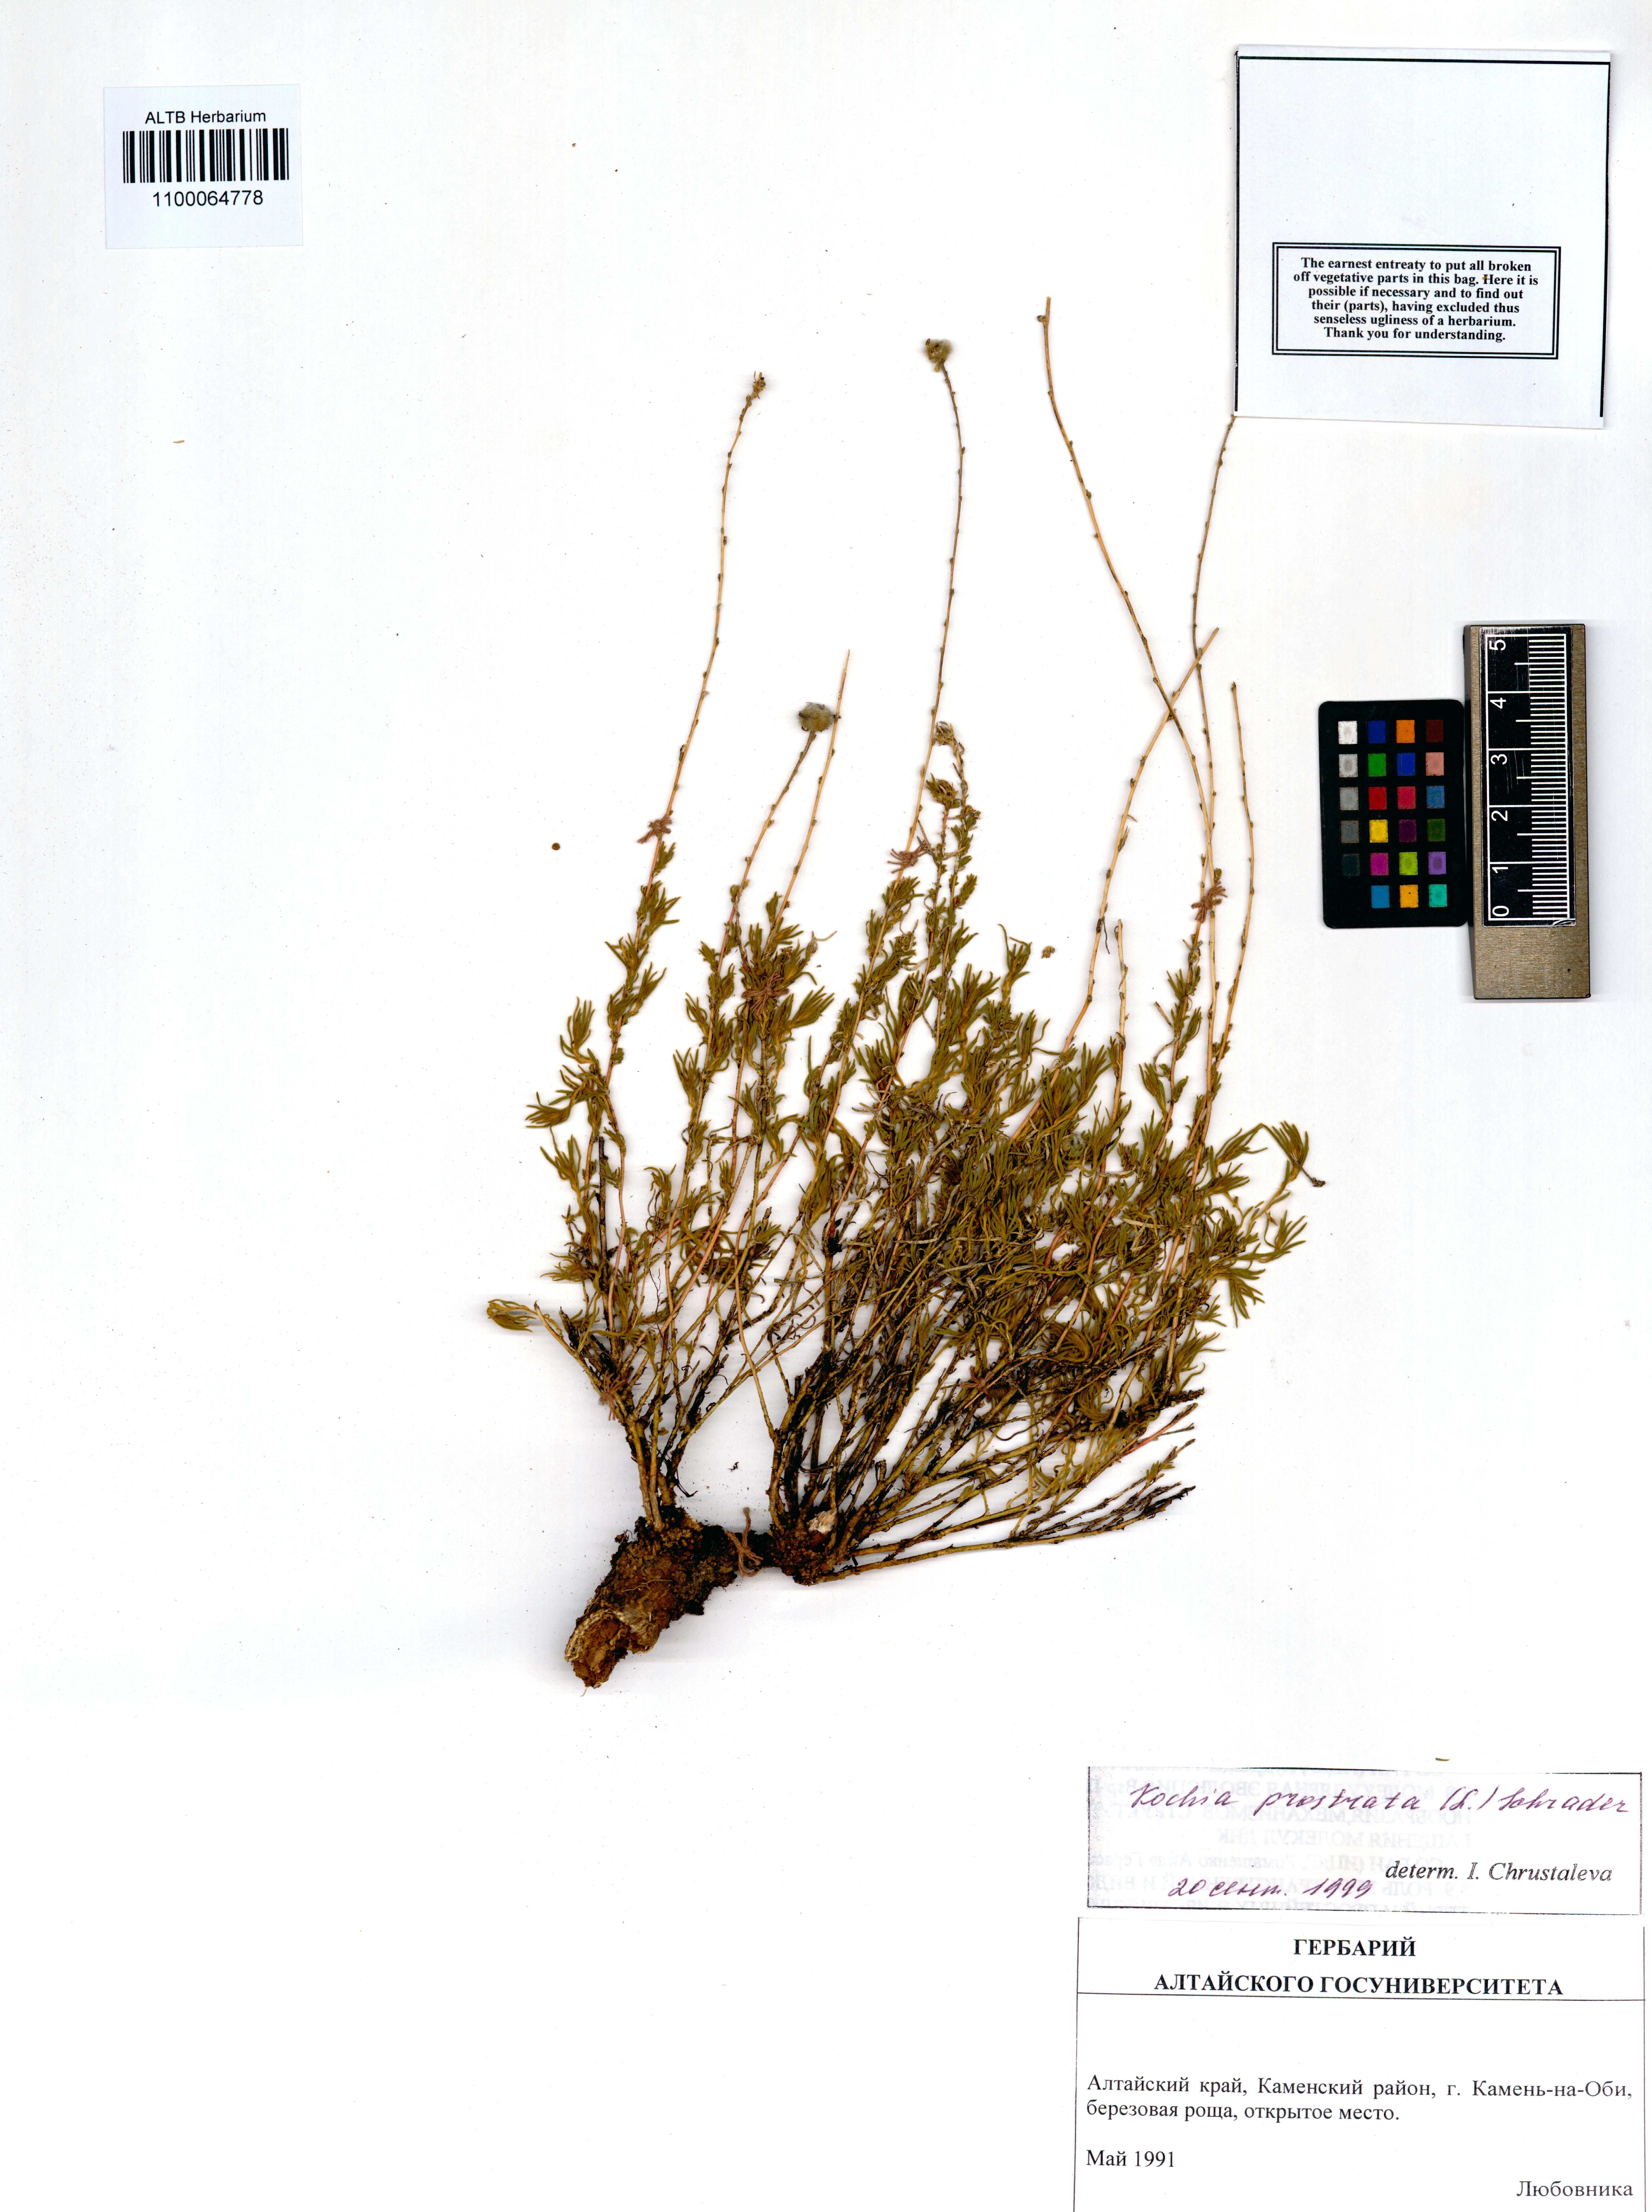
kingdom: Plantae
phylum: Tracheophyta
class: Magnoliopsida
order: Caryophyllales
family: Amaranthaceae
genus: Bassia
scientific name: Bassia prostrata
